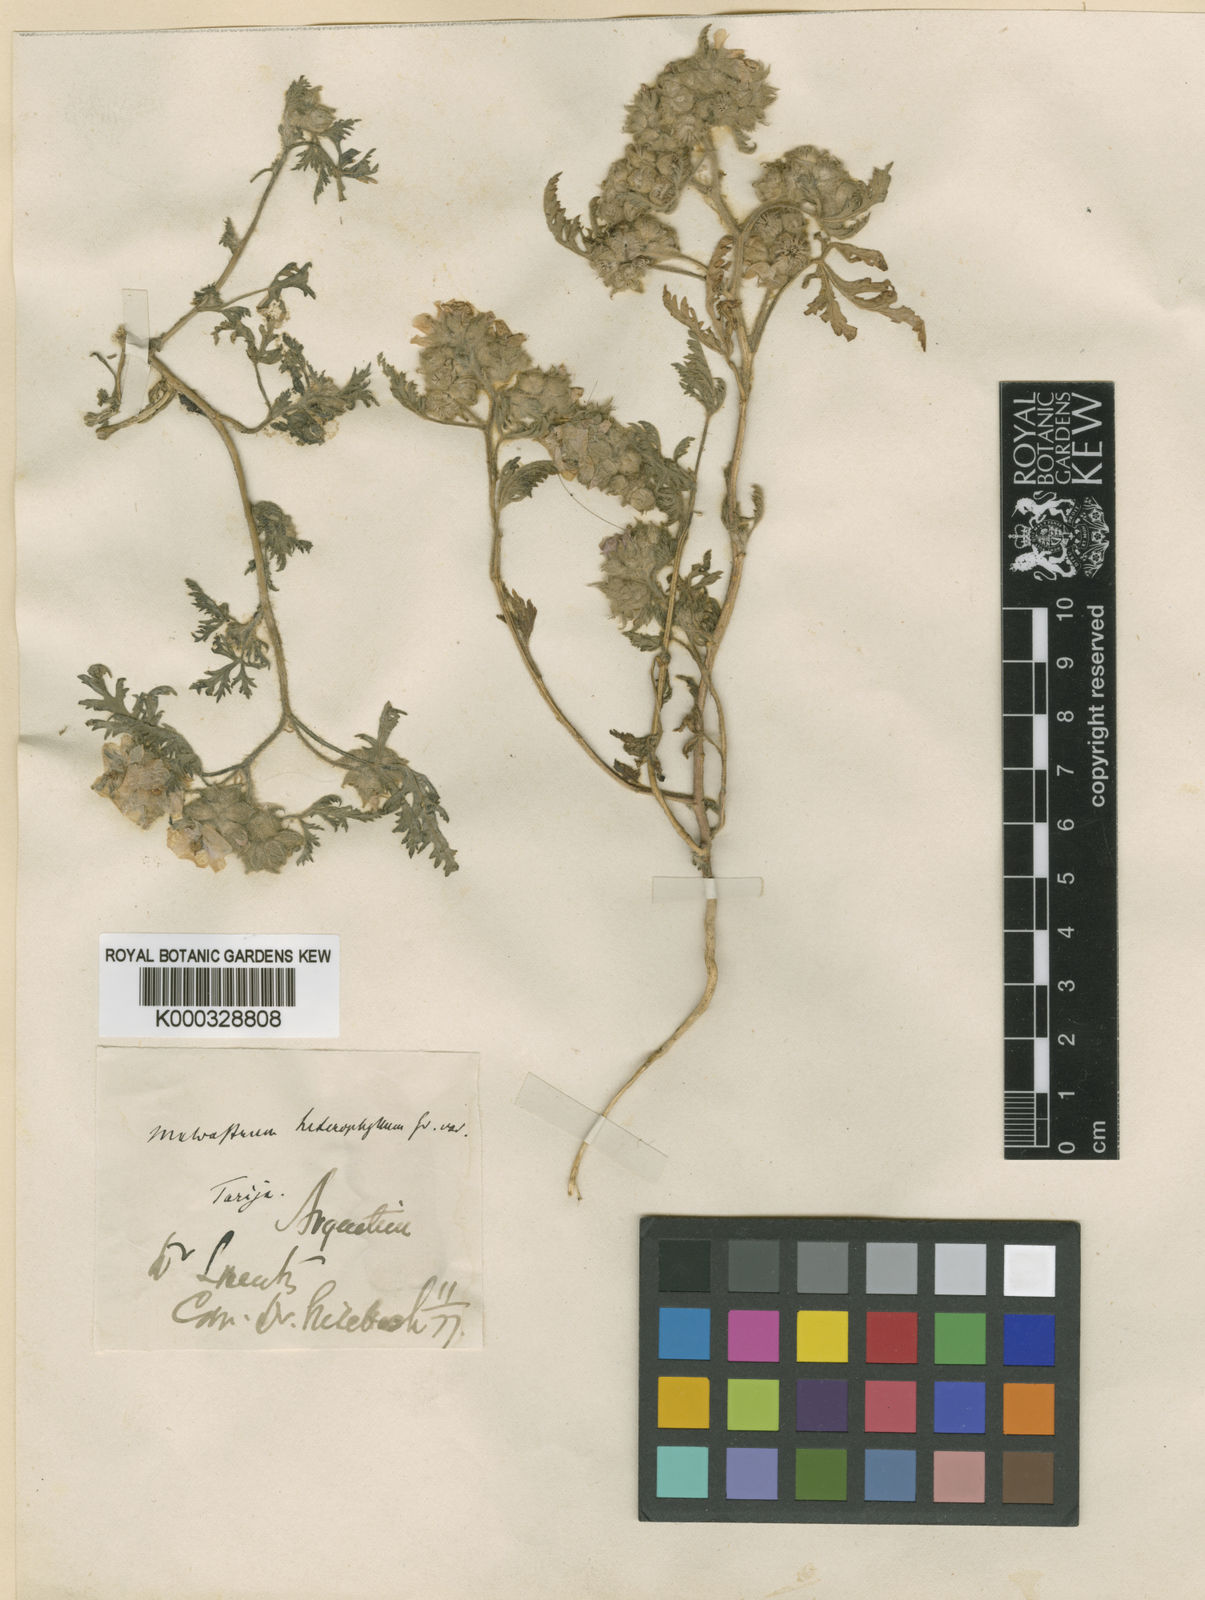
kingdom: Plantae
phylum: Tracheophyta
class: Magnoliopsida
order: Malvales
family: Malvaceae
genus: Tarasa
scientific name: Tarasa heterophylla
